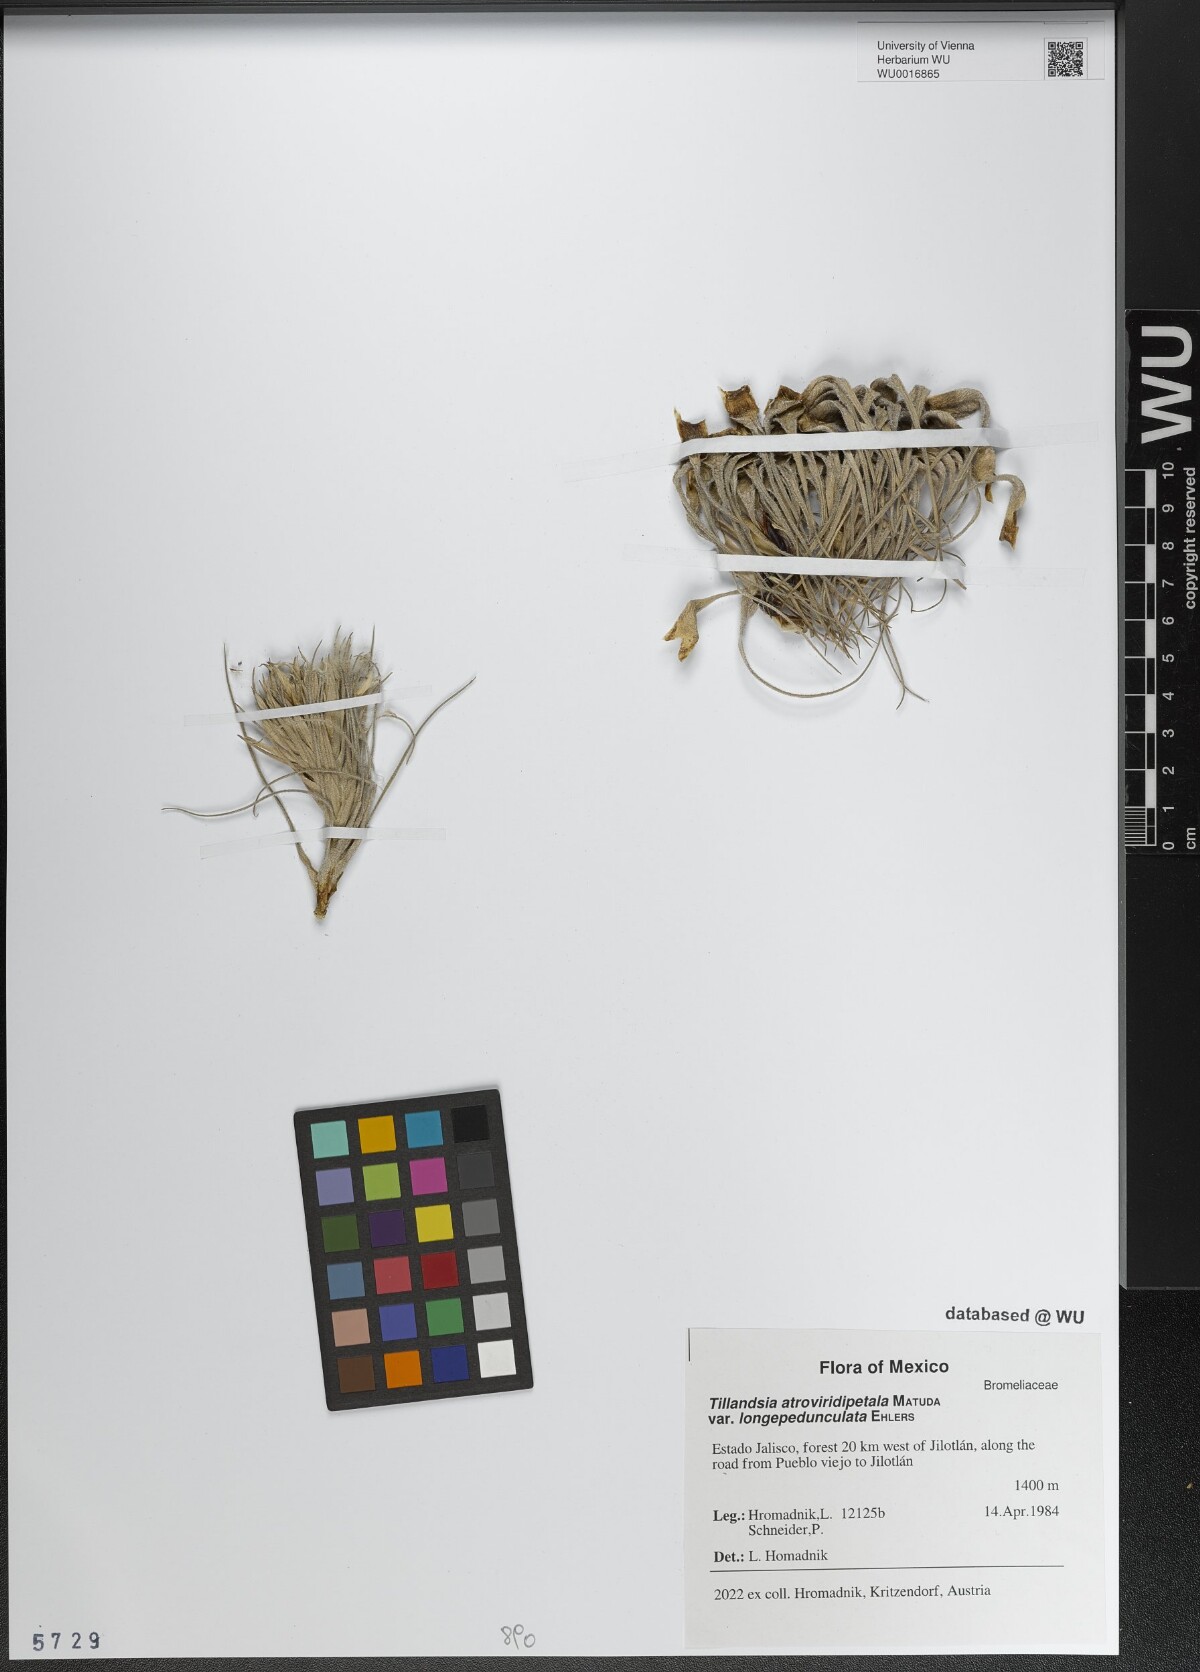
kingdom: Plantae
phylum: Tracheophyta
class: Liliopsida
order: Poales
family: Bromeliaceae
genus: Tillandsia
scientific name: Tillandsia atroviridipetala
